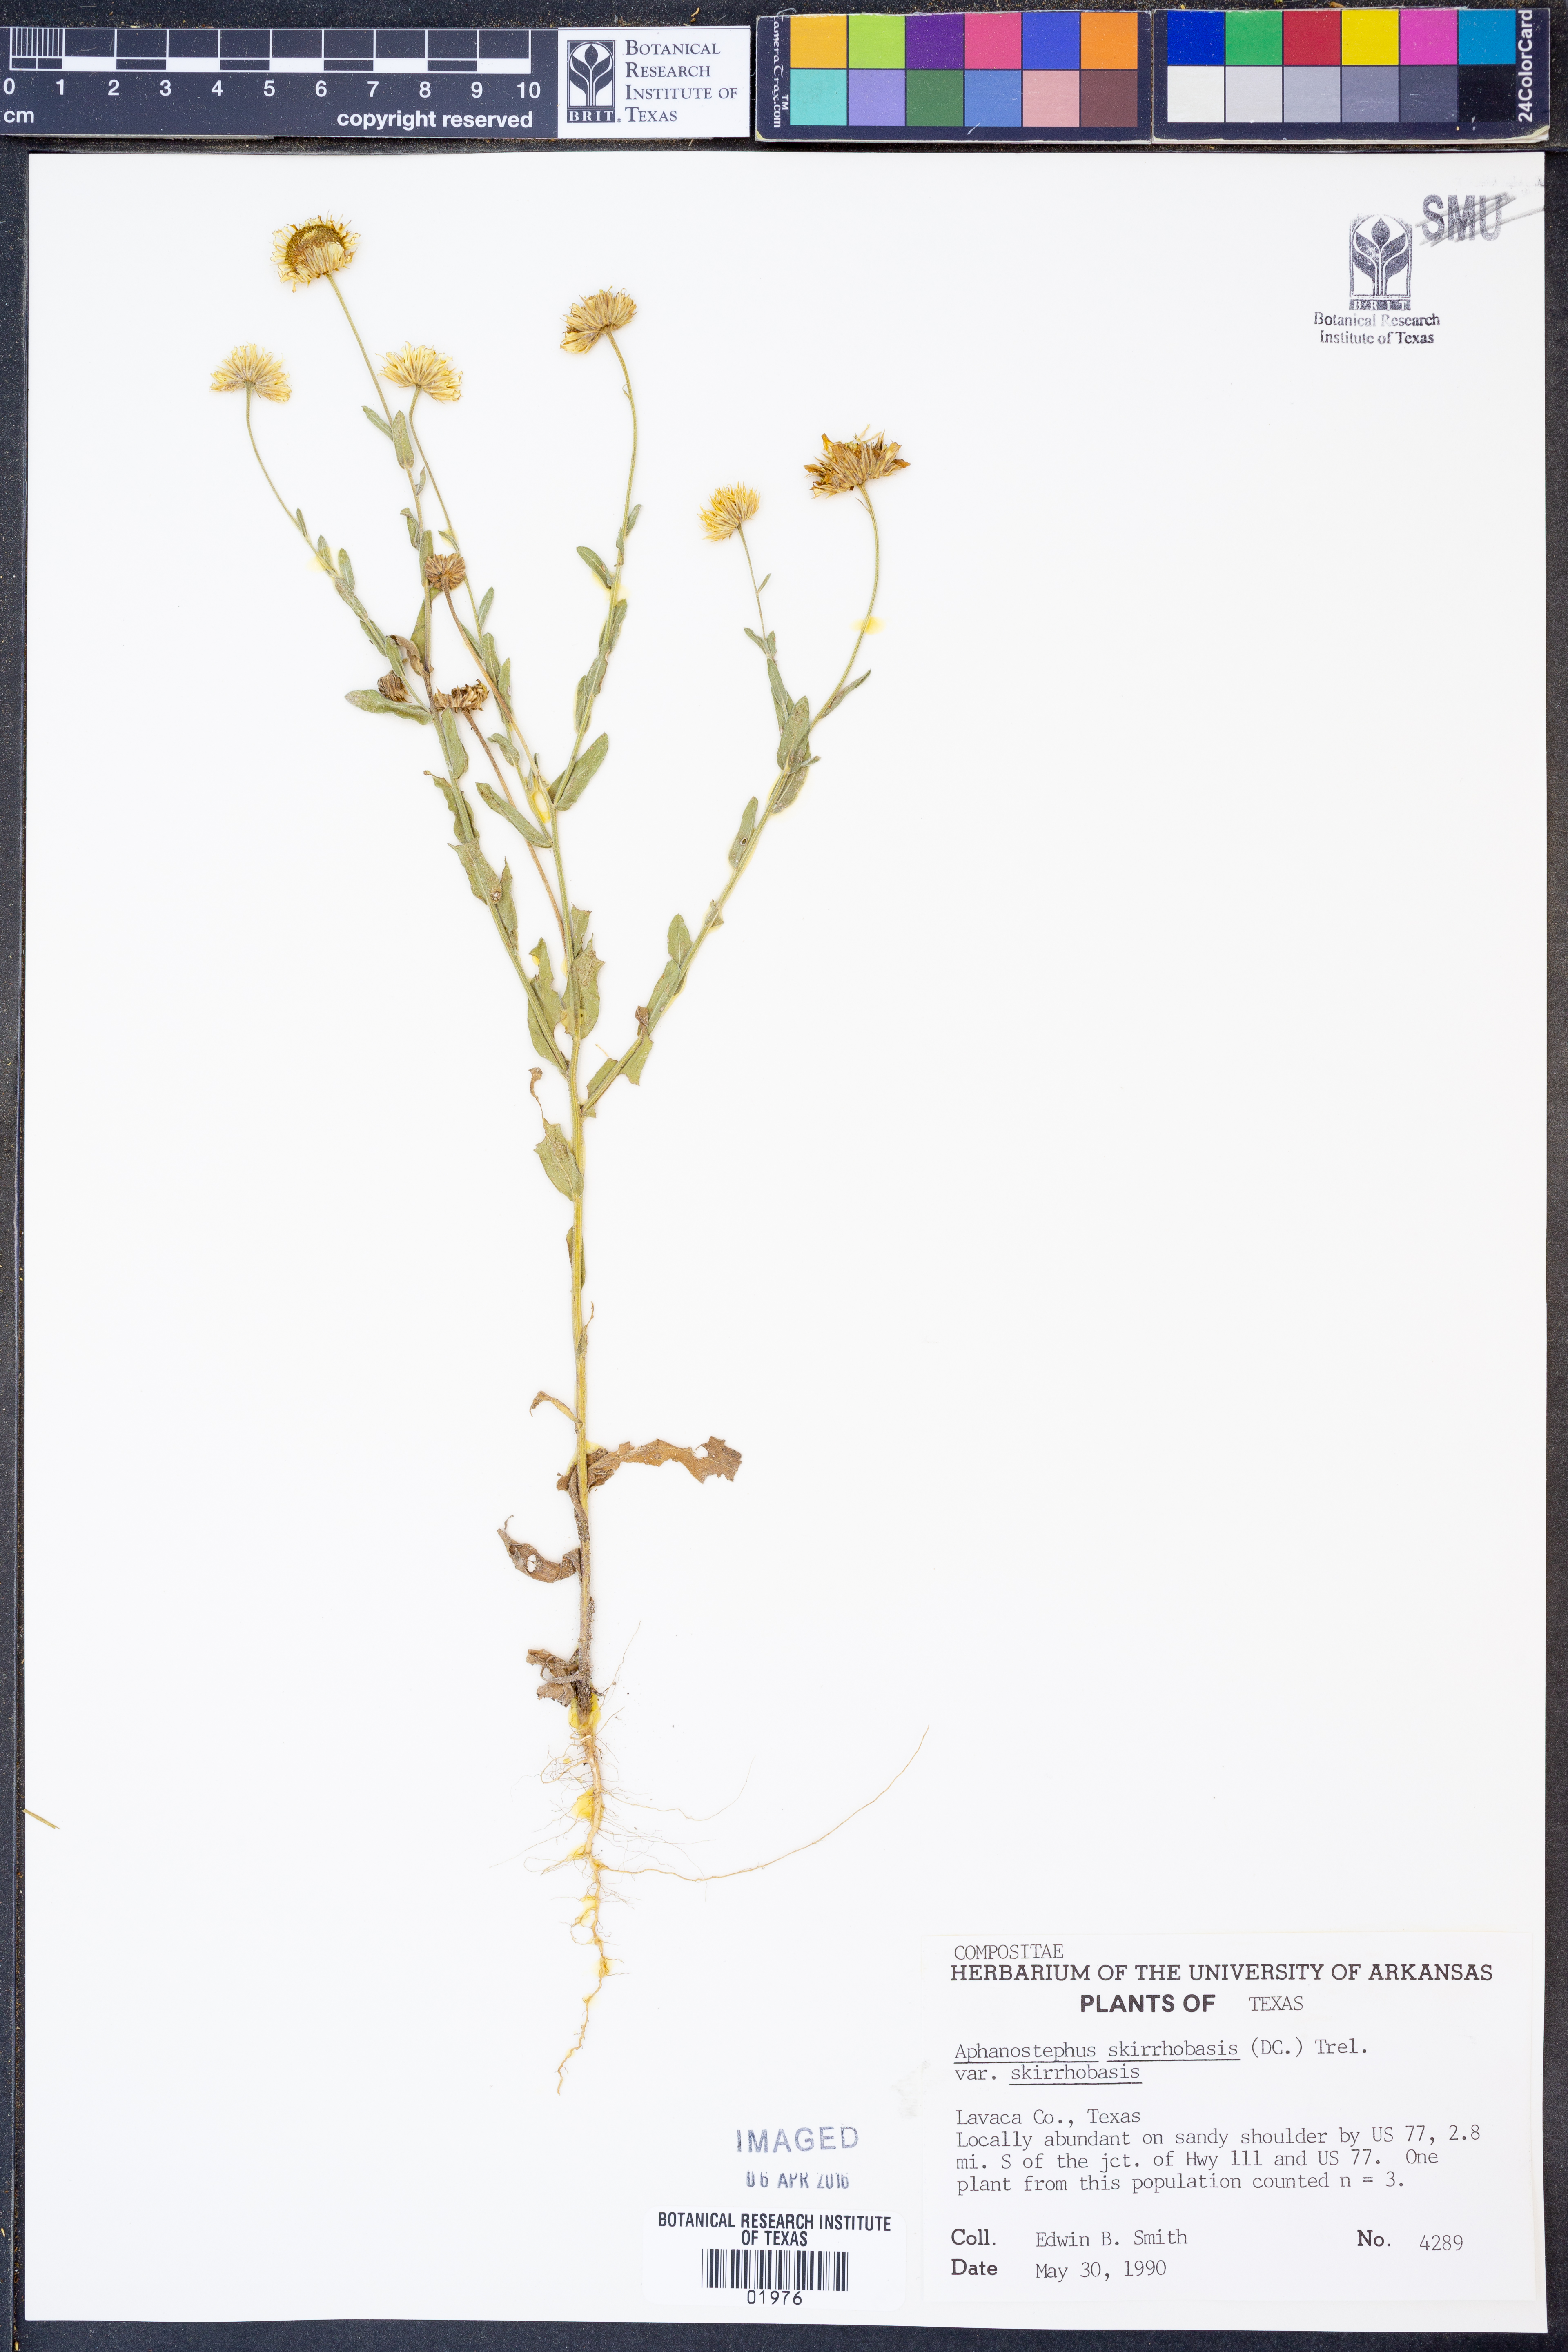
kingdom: Plantae
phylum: Tracheophyta
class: Magnoliopsida
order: Asterales
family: Asteraceae
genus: Aphanostephus
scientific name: Aphanostephus skirrhobasis
